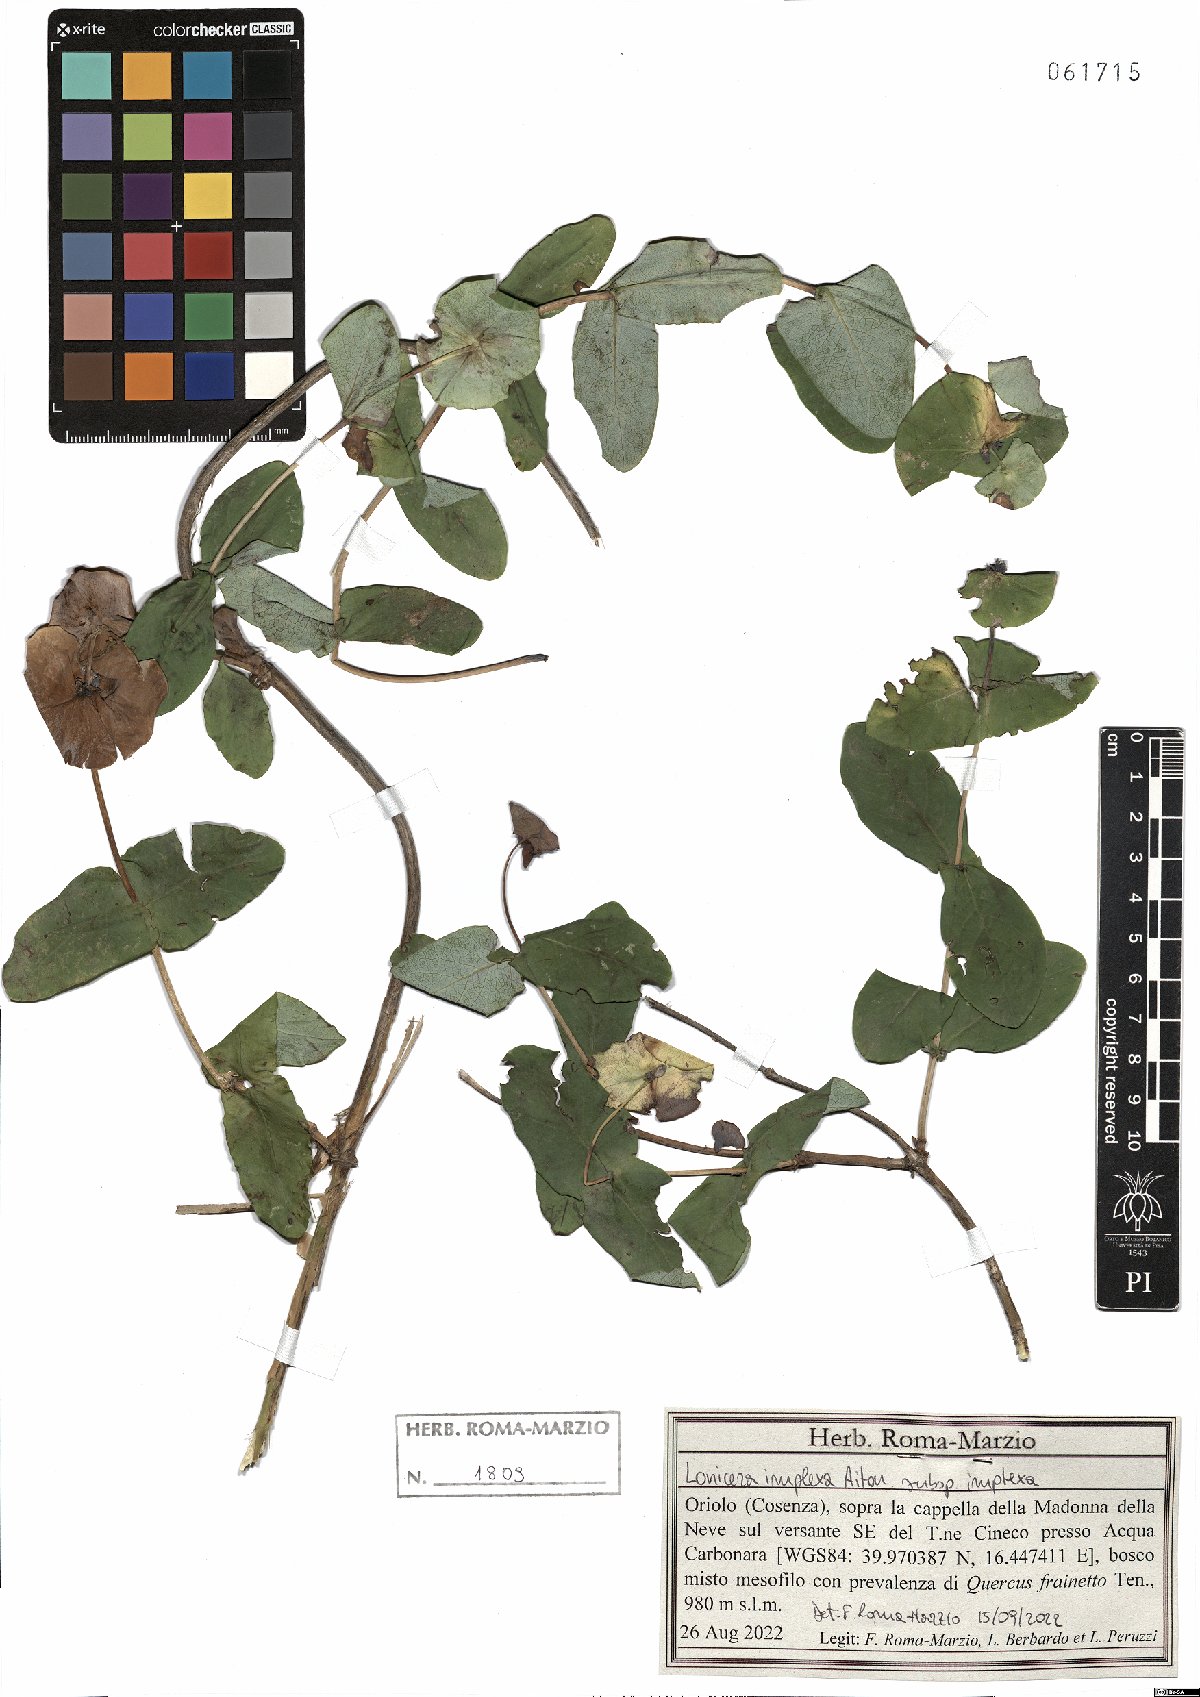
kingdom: Plantae
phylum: Tracheophyta
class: Magnoliopsida
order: Dipsacales
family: Caprifoliaceae
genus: Lonicera
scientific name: Lonicera implexa
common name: Minorca honeysuckle
